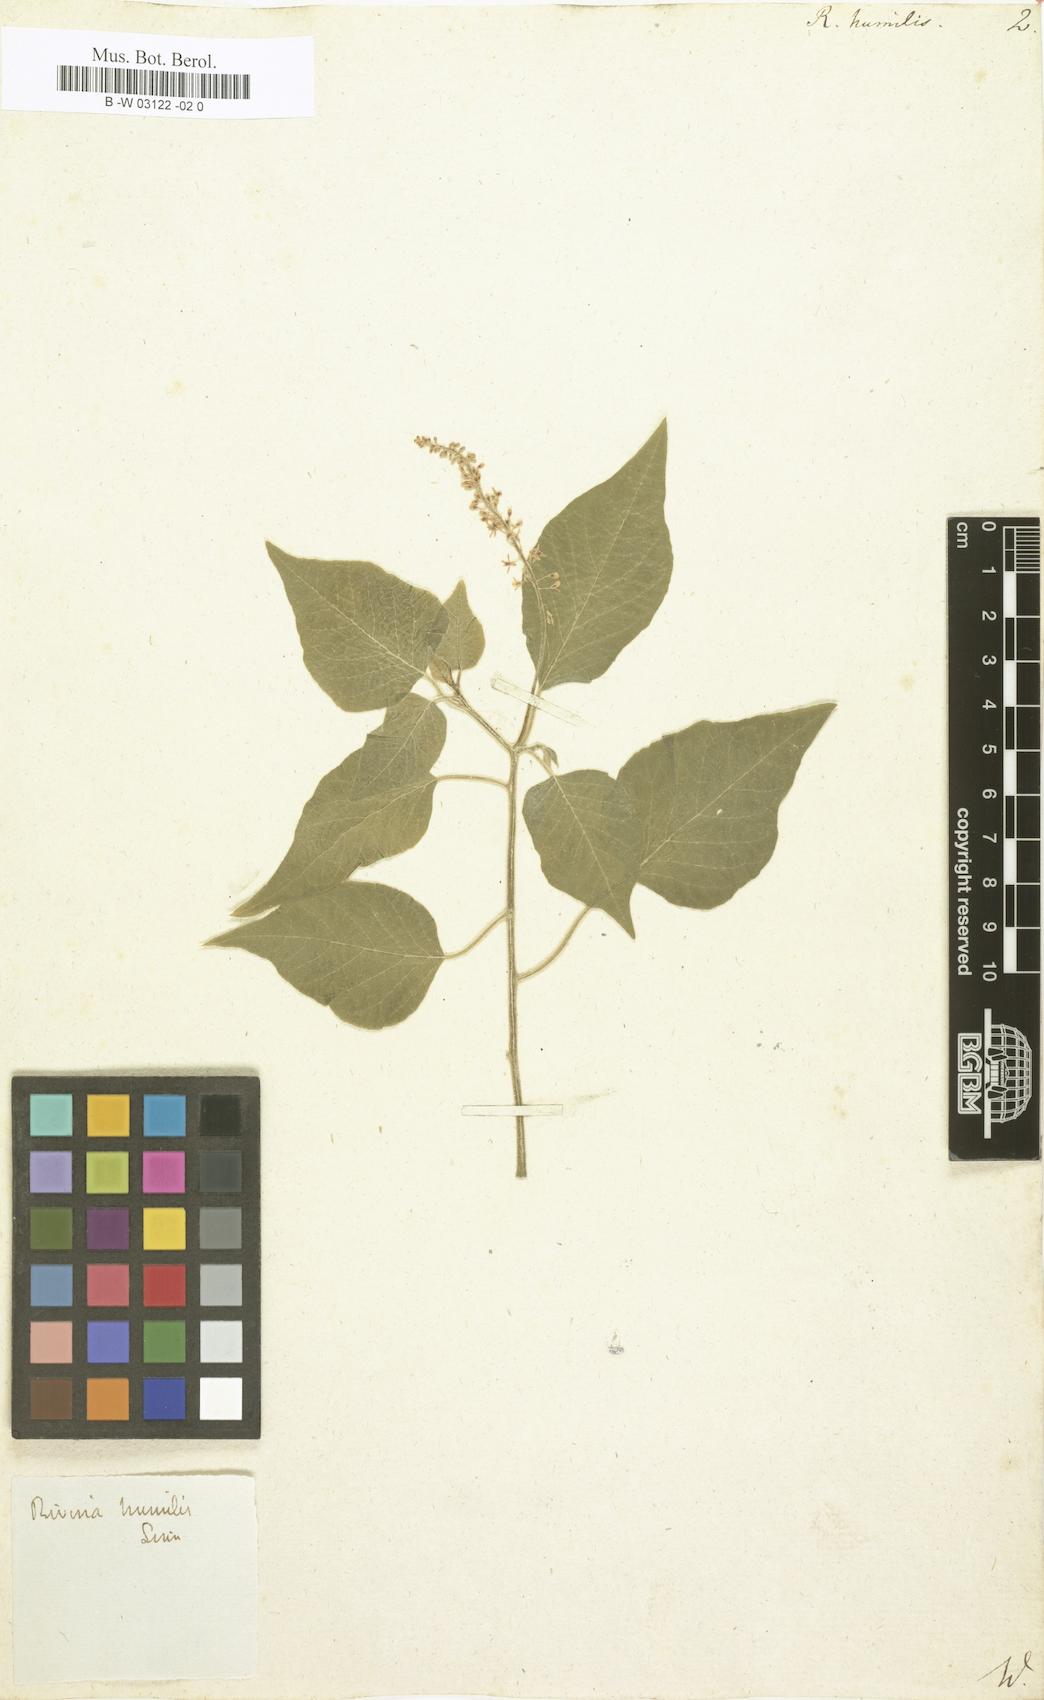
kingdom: Plantae
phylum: Tracheophyta
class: Magnoliopsida
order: Caryophyllales
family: Phytolaccaceae
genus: Rivina
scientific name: Rivina humilis
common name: Rougeplant
